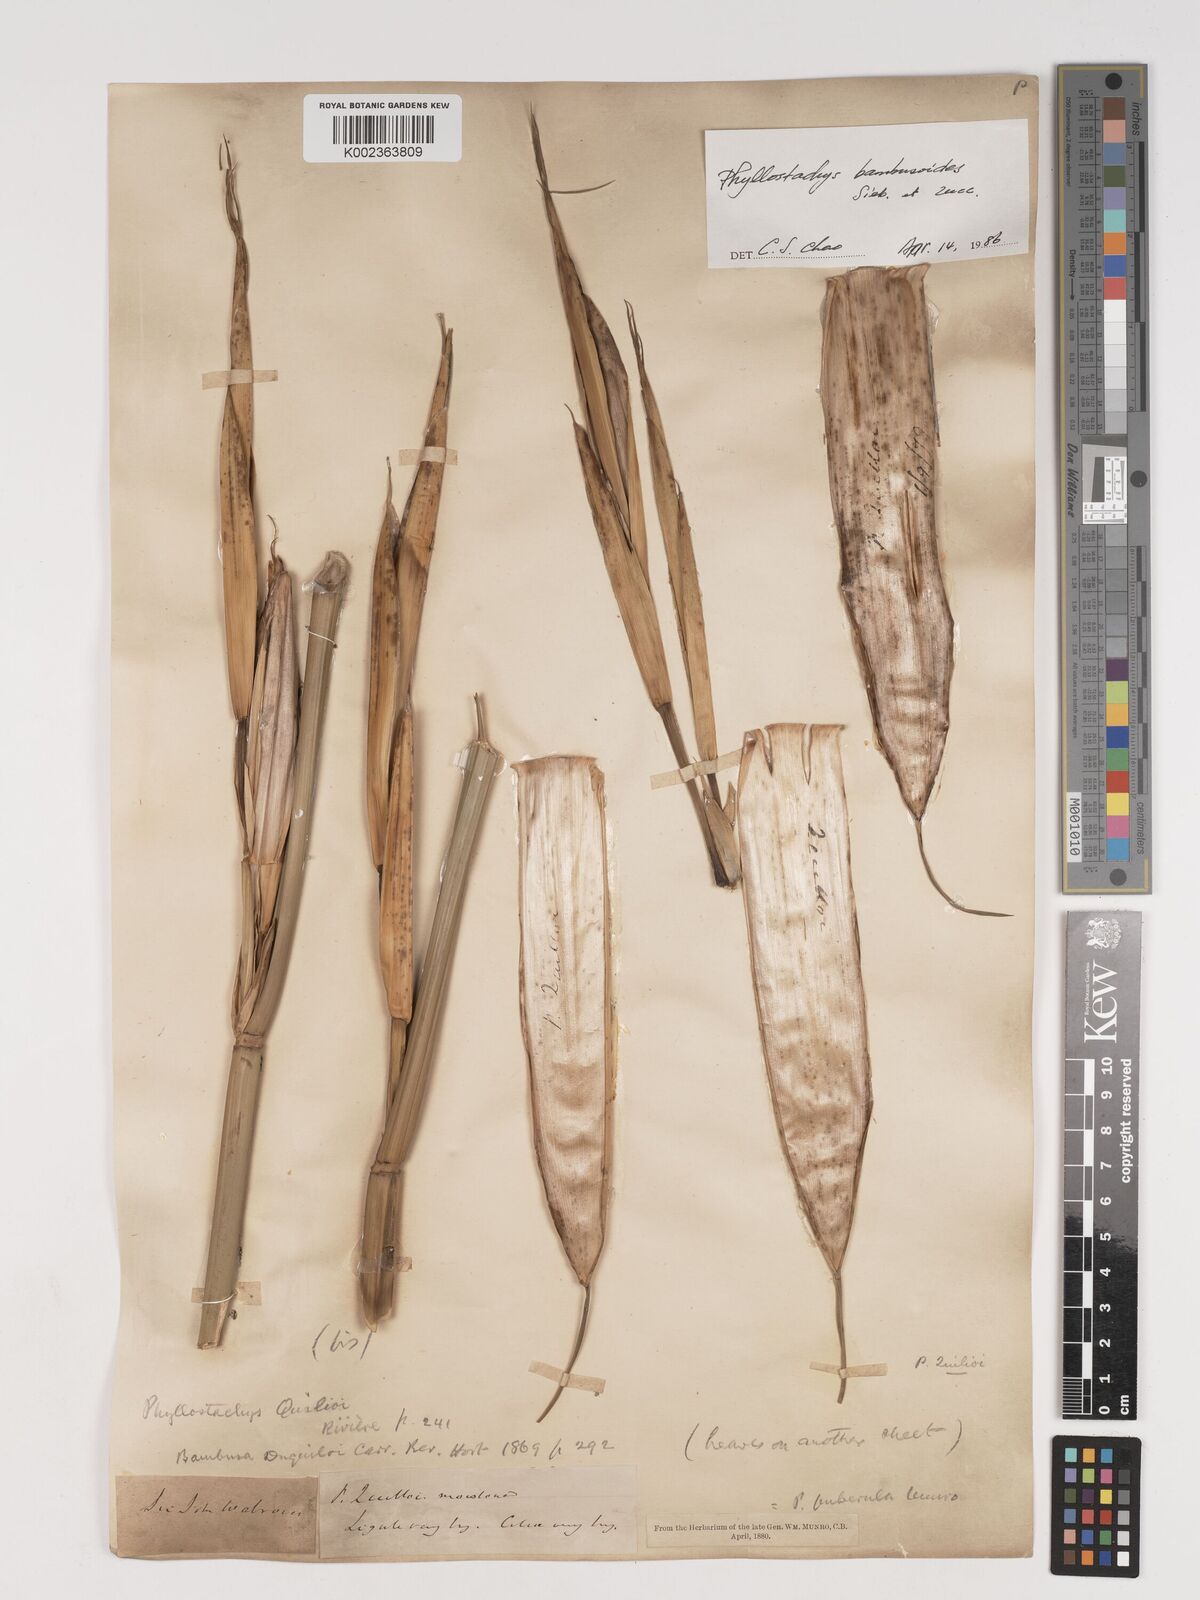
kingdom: Plantae
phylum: Tracheophyta
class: Liliopsida
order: Poales
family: Poaceae
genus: Phyllostachys
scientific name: Phyllostachys reticulata
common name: Bamboo
